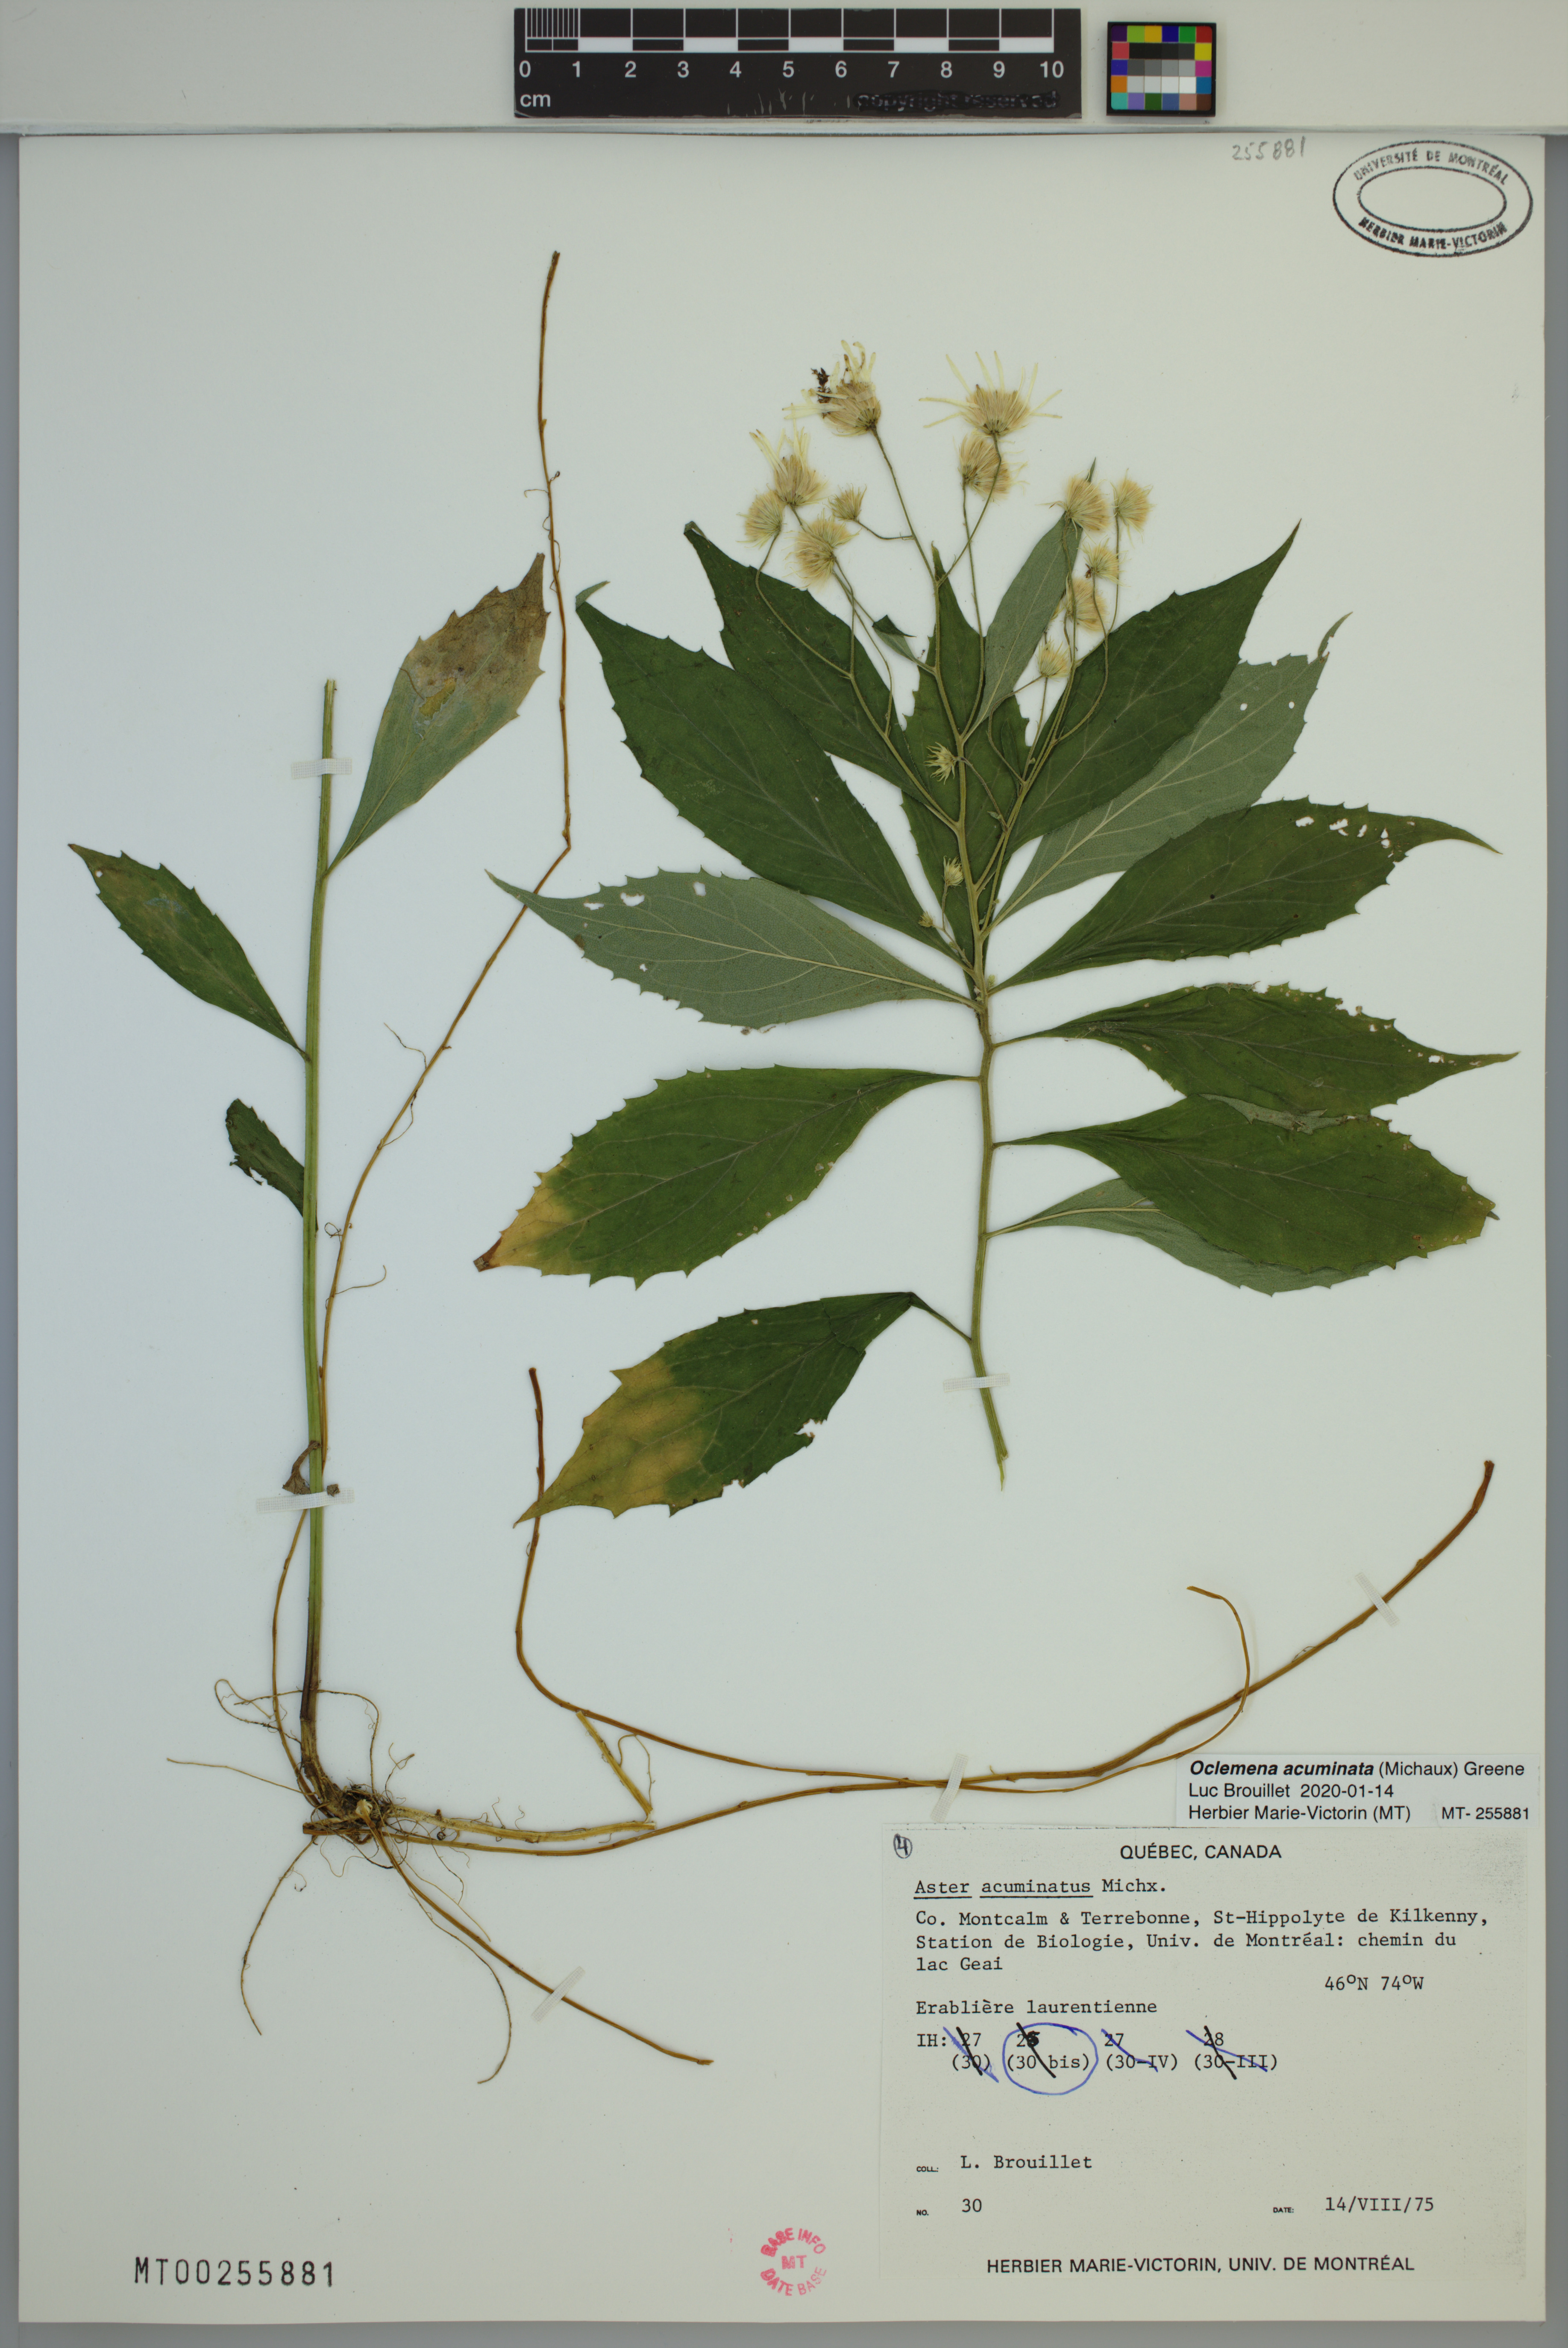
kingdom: Plantae
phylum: Tracheophyta
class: Magnoliopsida
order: Asterales
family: Asteraceae
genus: Oclemena
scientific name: Oclemena acuminata
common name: Mountain aster
